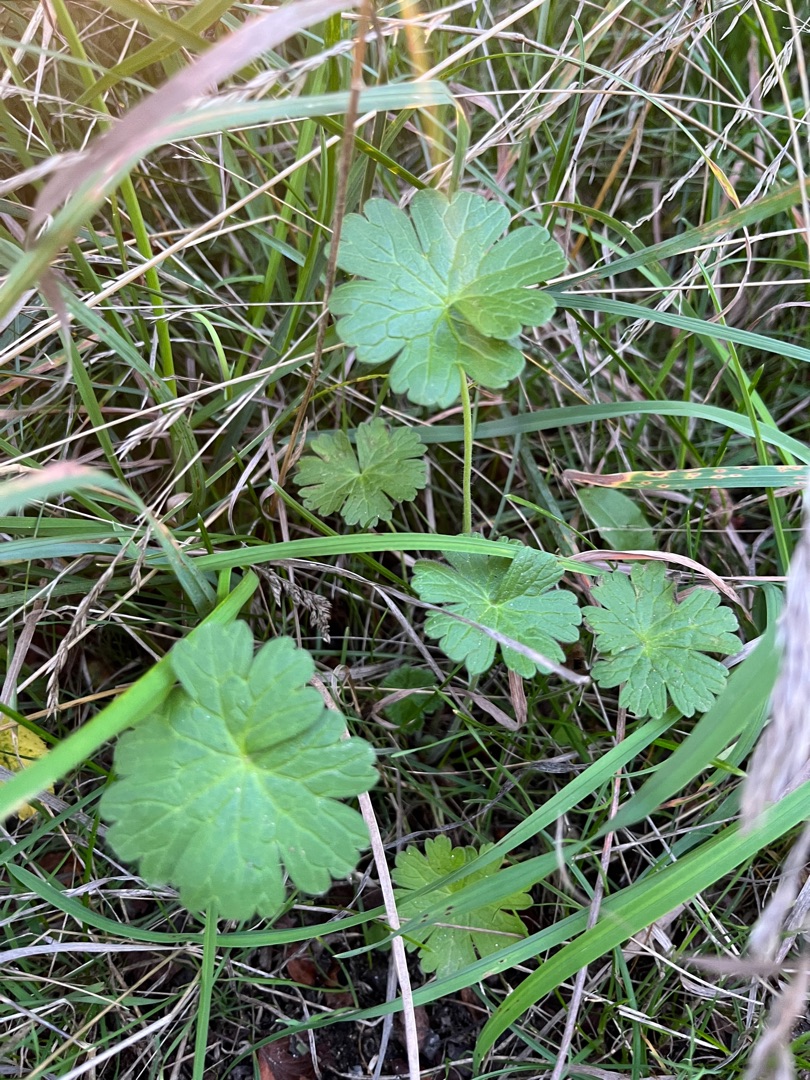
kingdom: Plantae
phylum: Tracheophyta
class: Magnoliopsida
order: Geraniales
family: Geraniaceae
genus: Geranium
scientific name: Geranium molle
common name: Blød storkenæb
